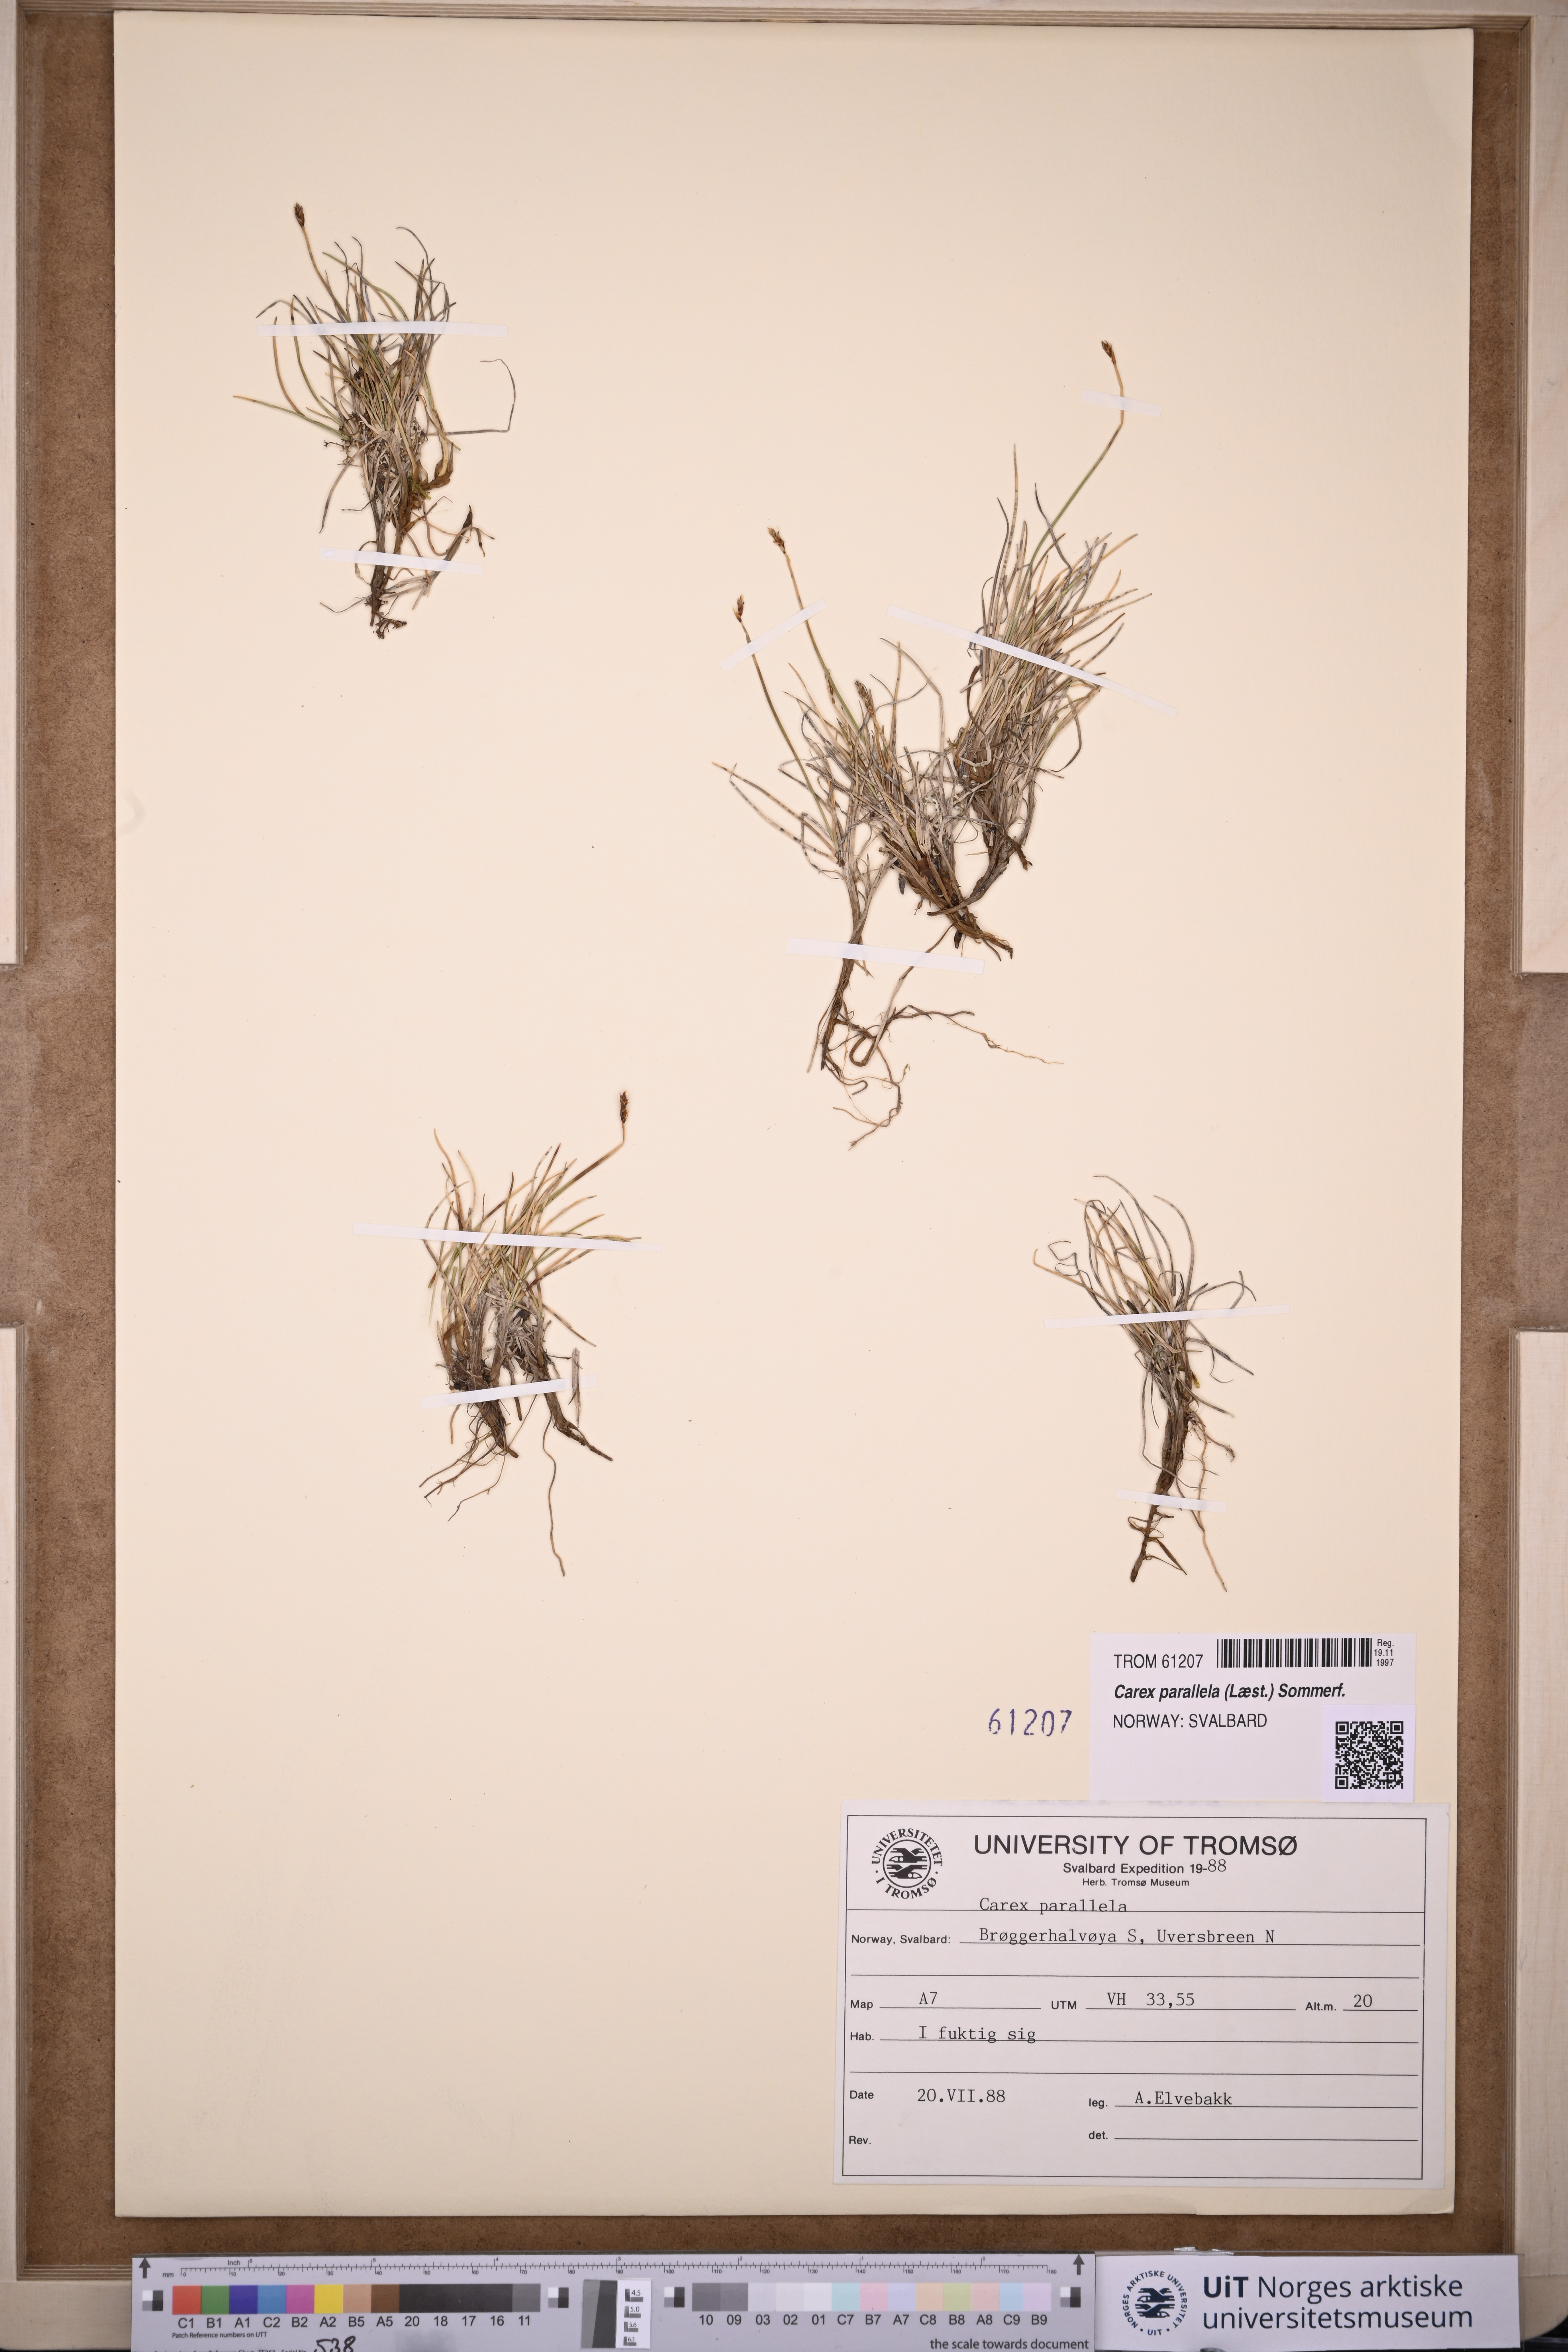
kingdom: Plantae
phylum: Tracheophyta
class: Liliopsida
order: Poales
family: Cyperaceae
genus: Carex
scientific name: Carex parallela
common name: Parallel sedge
